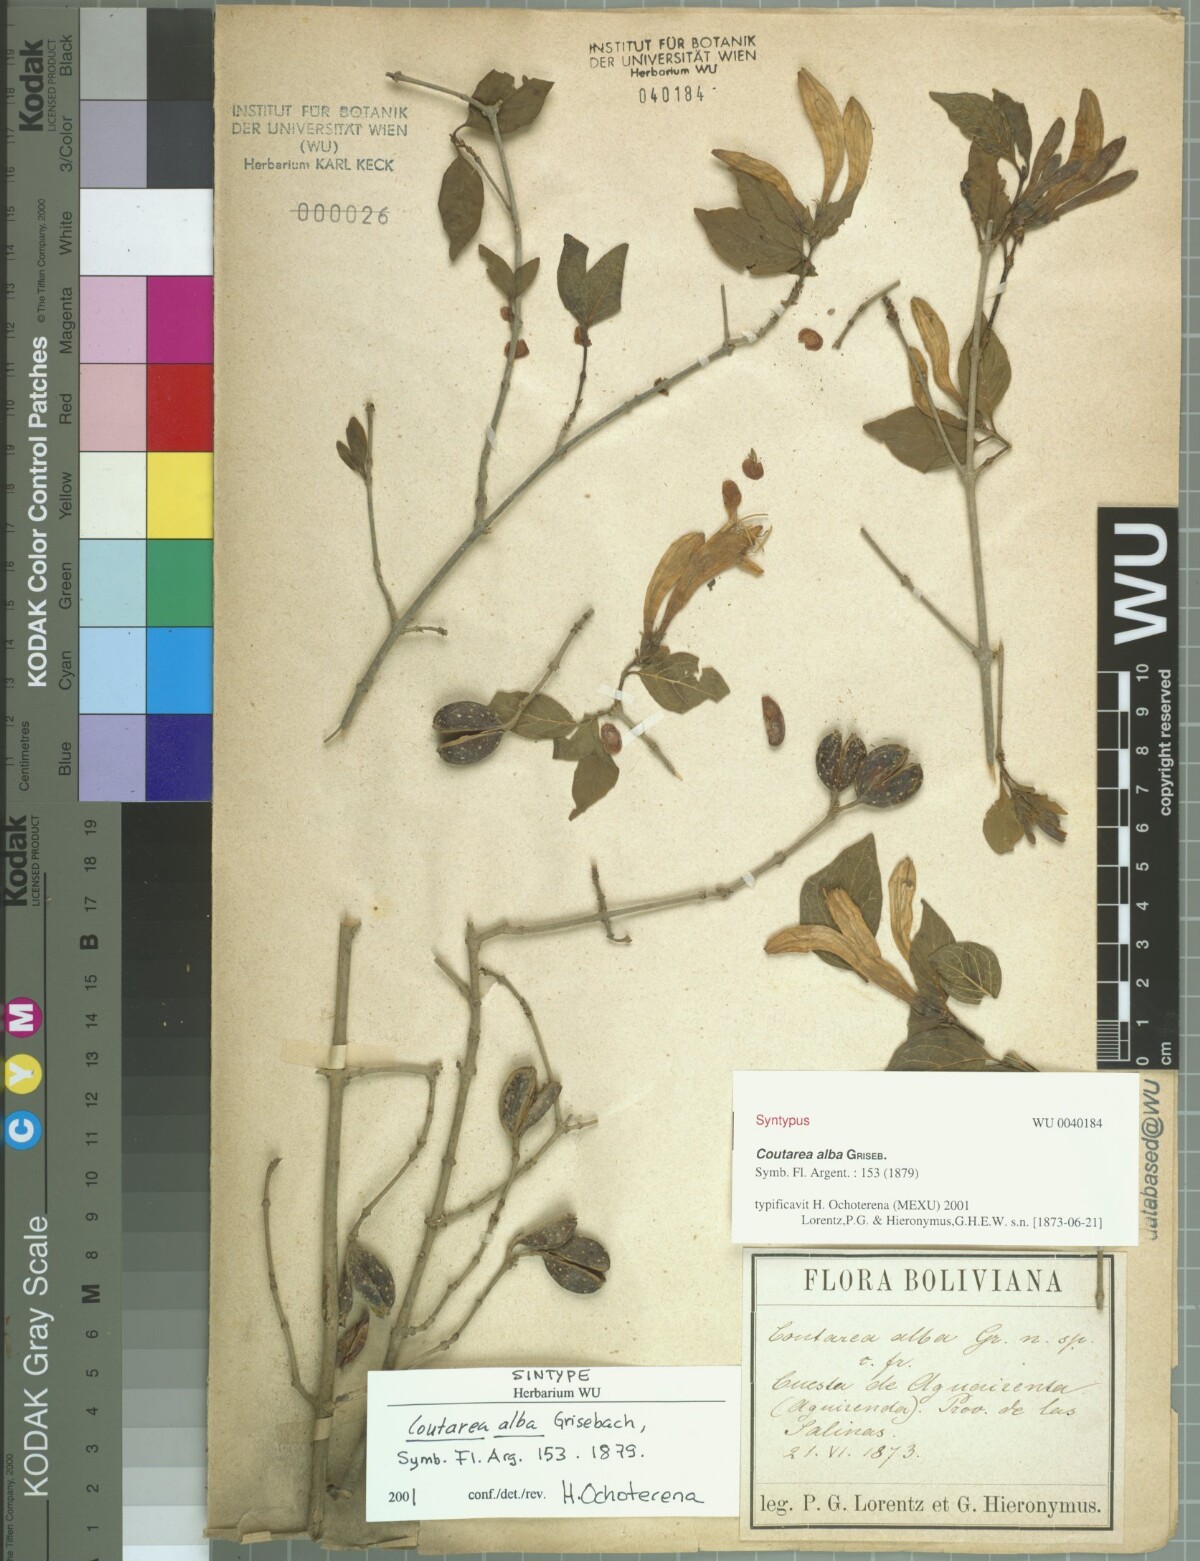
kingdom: Plantae
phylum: Tracheophyta
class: Magnoliopsida
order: Gentianales
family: Rubiaceae
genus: Coutarea
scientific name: Coutarea alba
